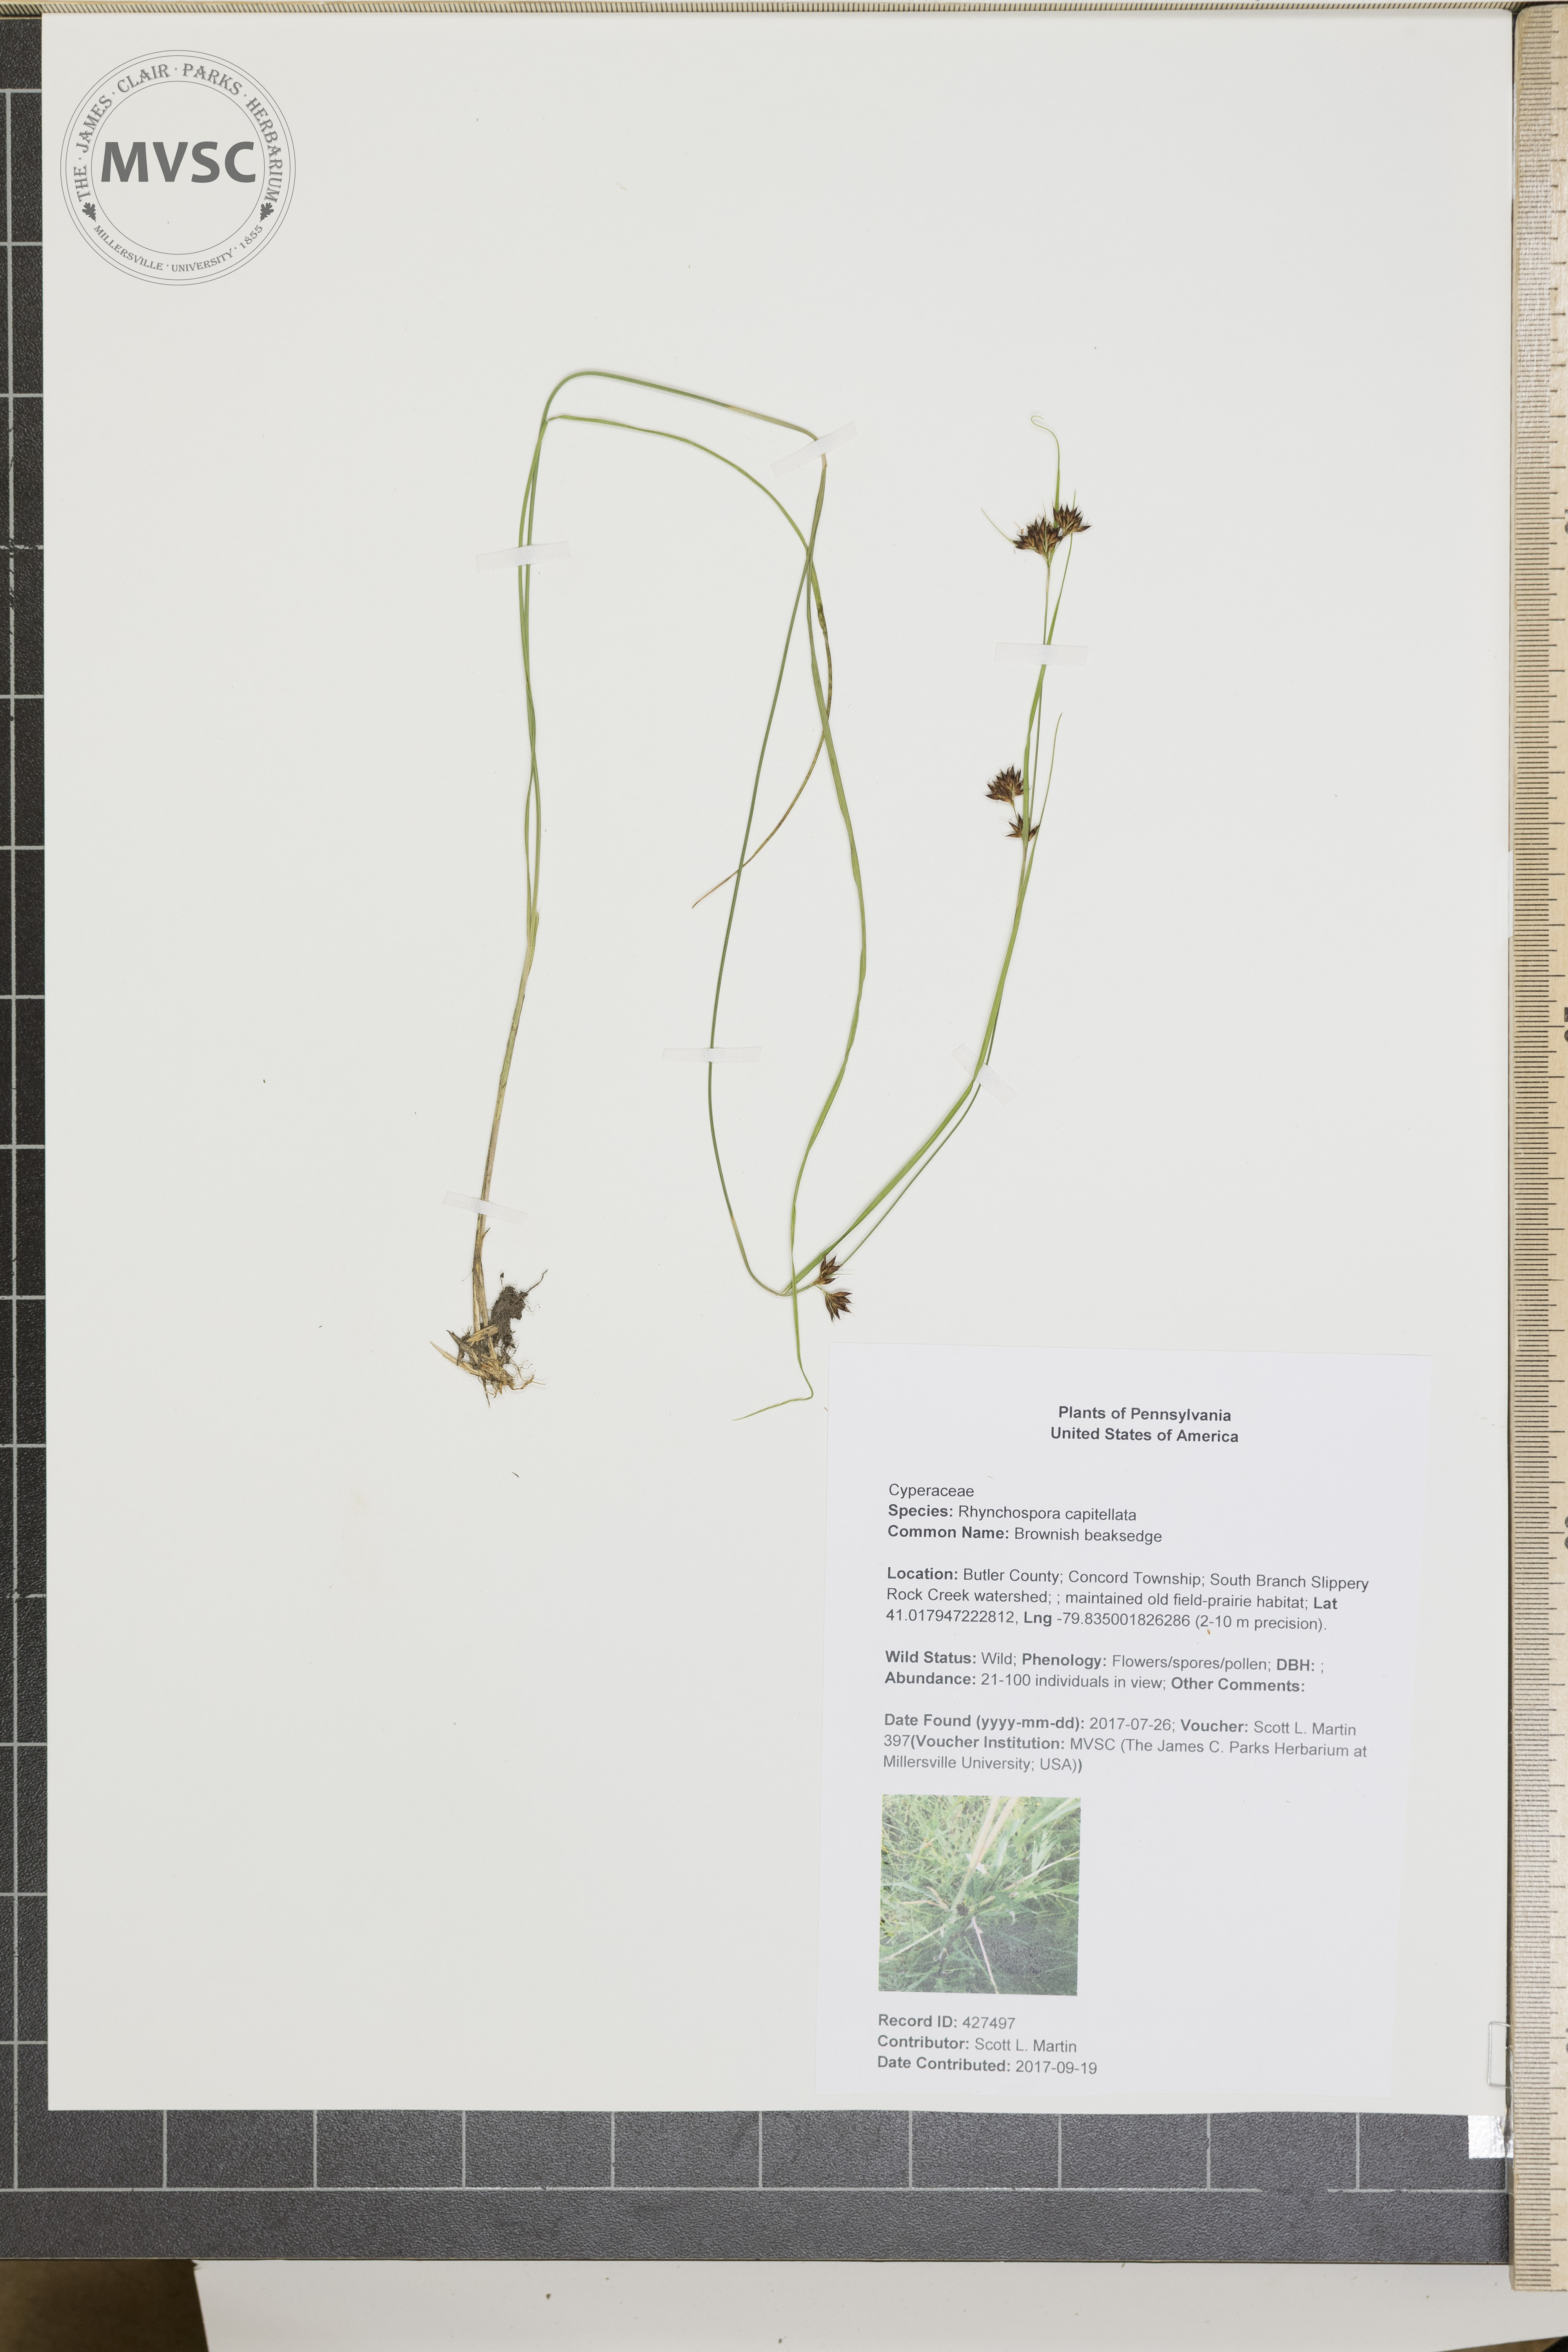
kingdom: Plantae
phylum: Tracheophyta
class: Liliopsida
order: Poales
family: Cyperaceae
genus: Rhynchospora
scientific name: Rhynchospora capitellata
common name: Brownish beaksedge
